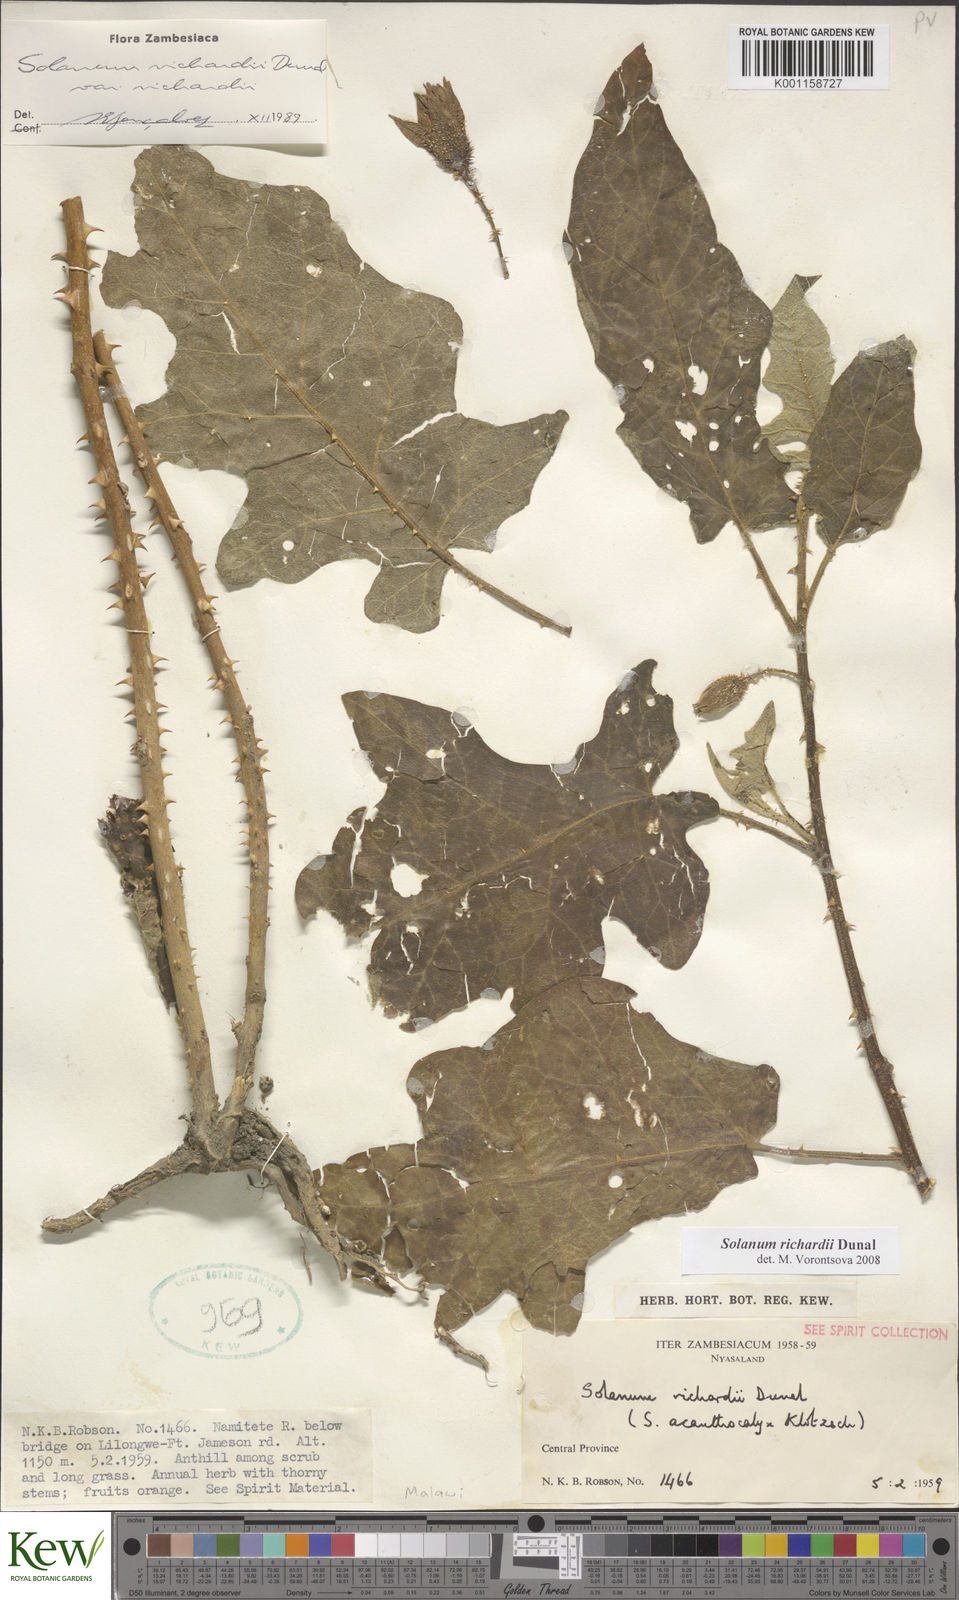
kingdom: Plantae
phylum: Tracheophyta
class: Magnoliopsida
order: Solanales
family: Solanaceae
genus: Solanum
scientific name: Solanum richardii
